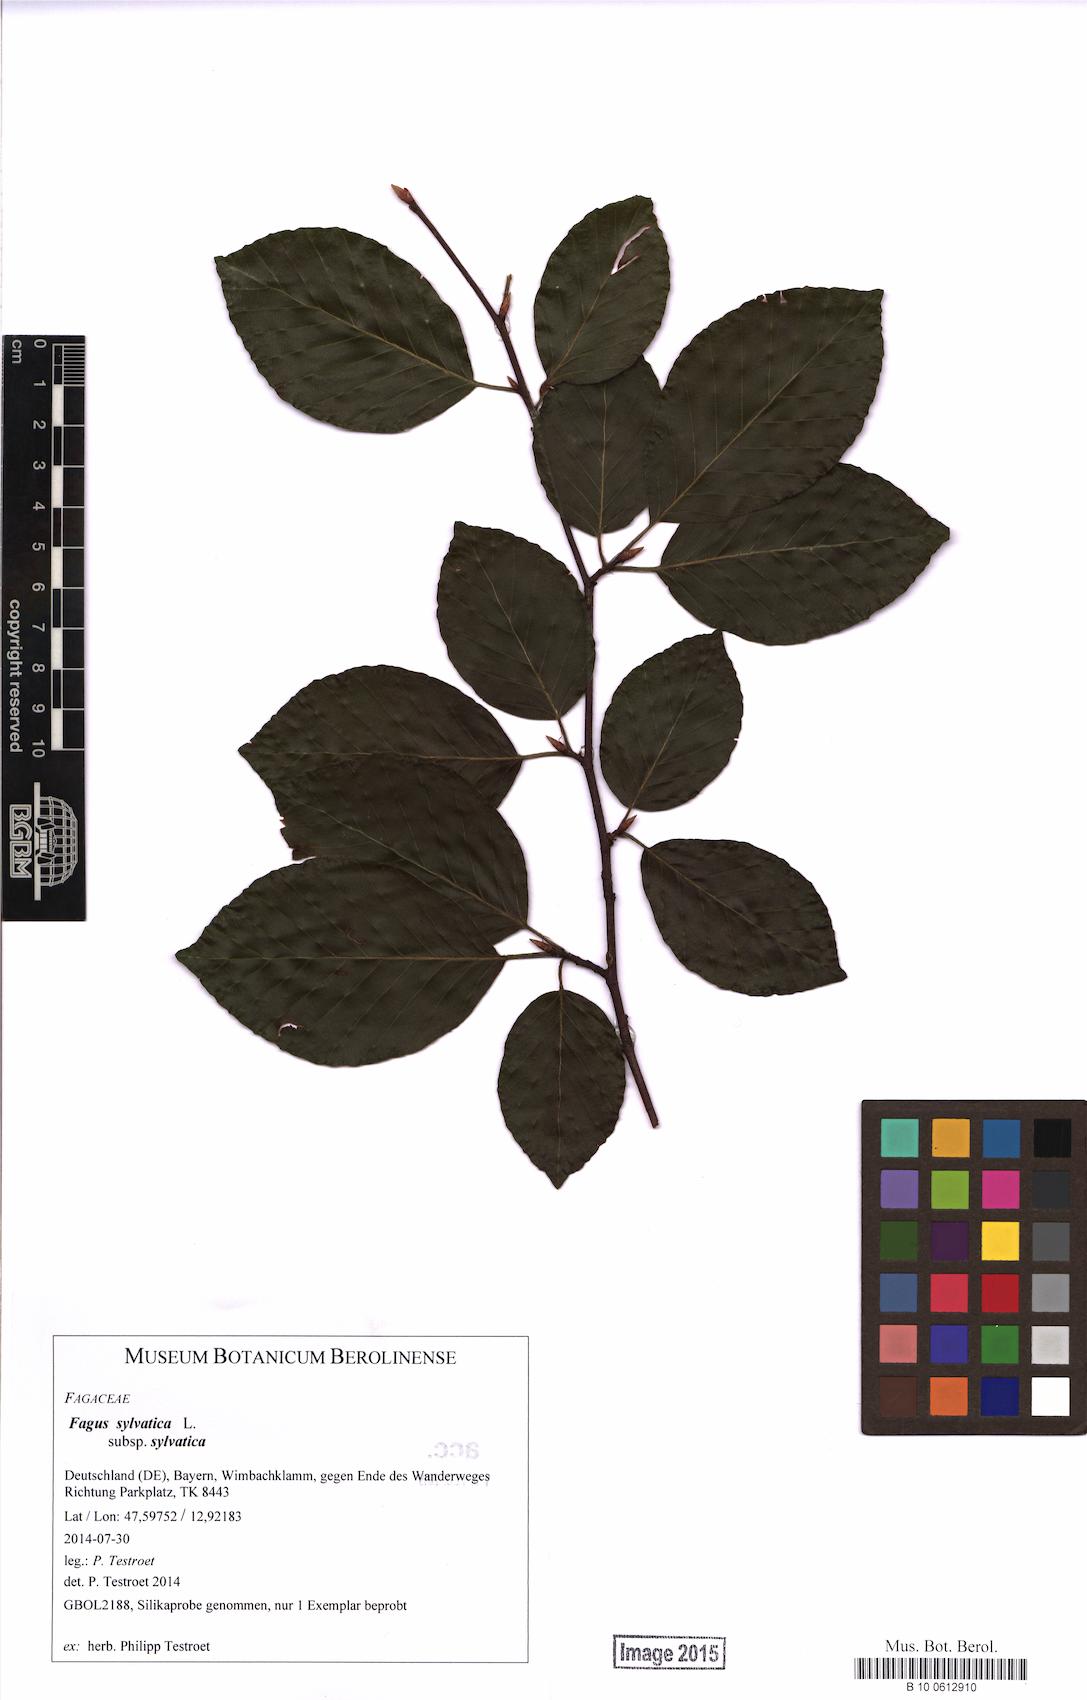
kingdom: Plantae
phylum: Tracheophyta
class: Magnoliopsida
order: Fagales
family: Fagaceae
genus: Fagus
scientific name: Fagus sylvatica
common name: Beech
